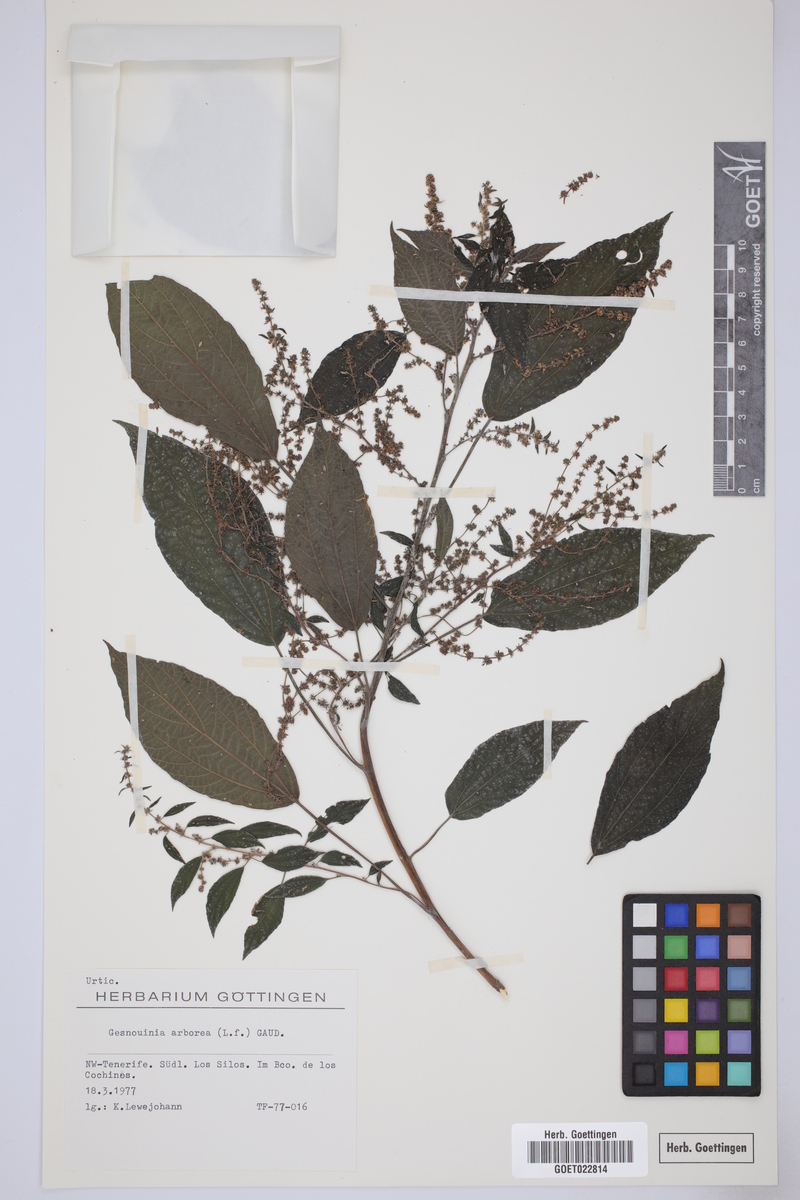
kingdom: Plantae
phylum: Tracheophyta
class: Magnoliopsida
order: Rosales
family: Urticaceae
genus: Gesnouinia
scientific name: Gesnouinia arborea
